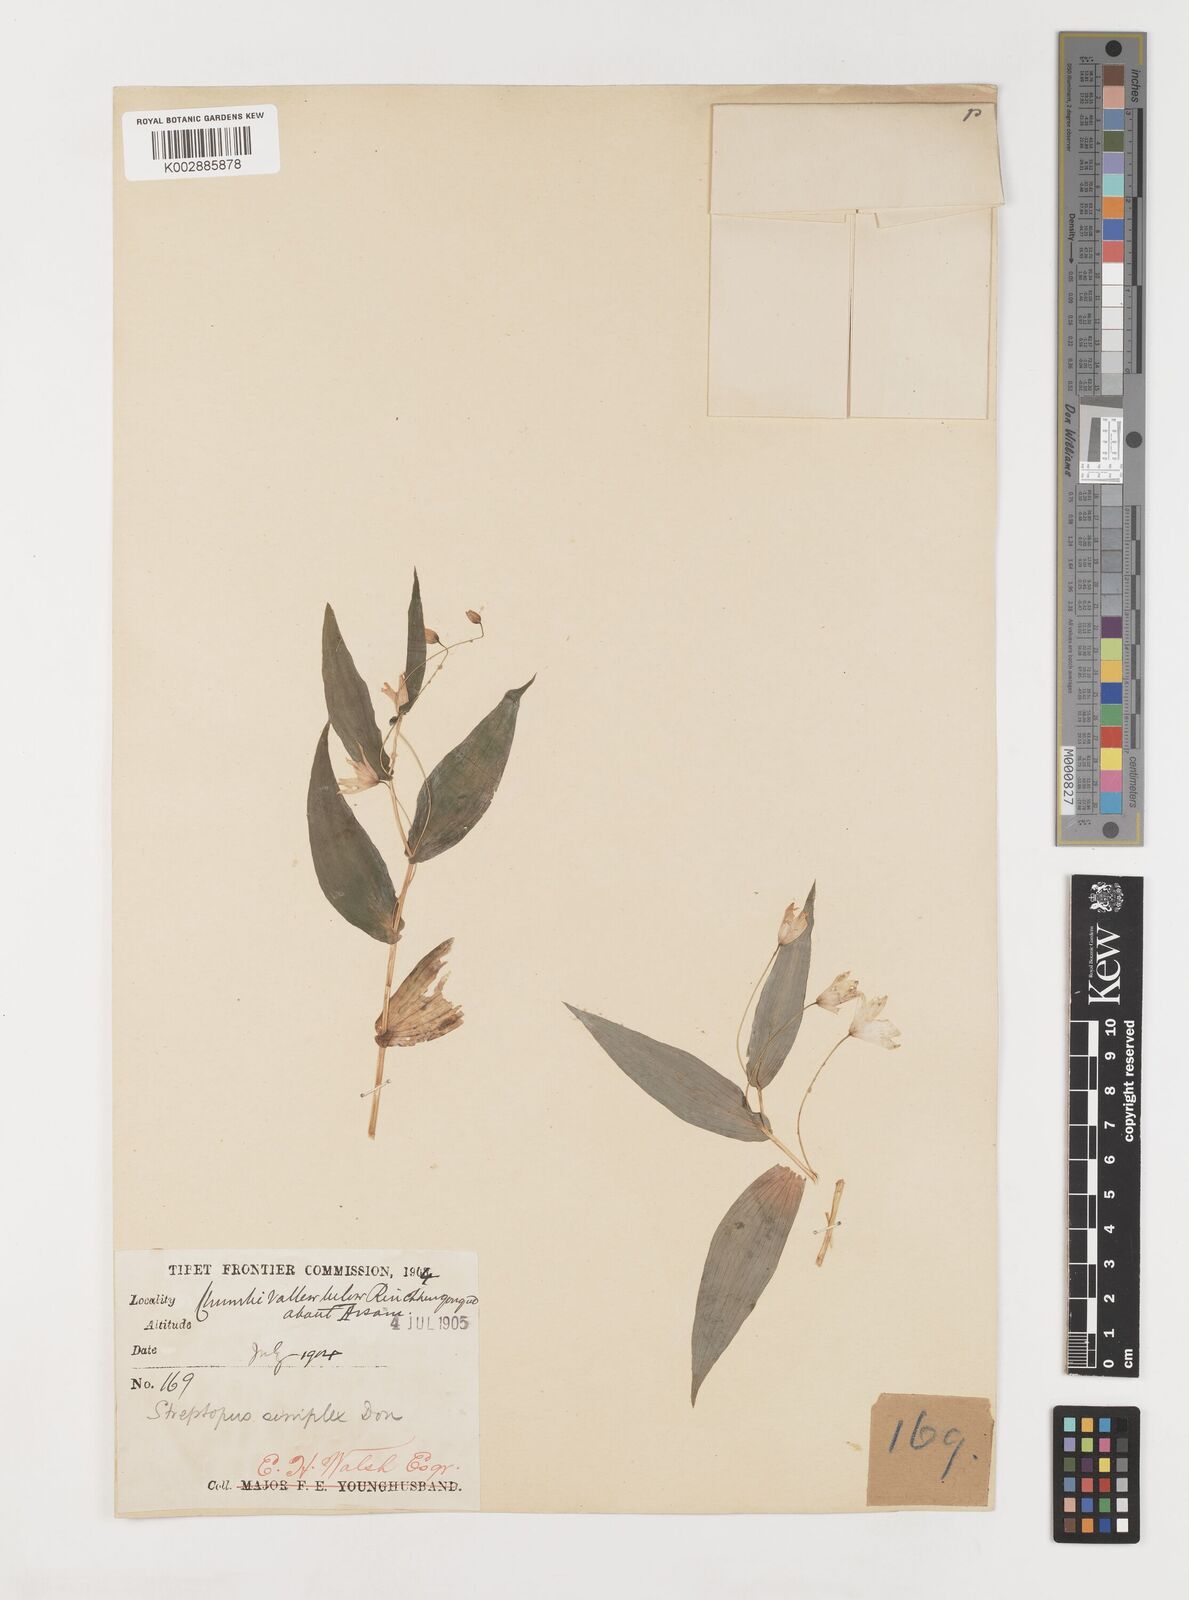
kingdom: Plantae
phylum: Tracheophyta
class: Liliopsida
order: Liliales
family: Liliaceae
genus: Streptopus
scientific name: Streptopus simplex
